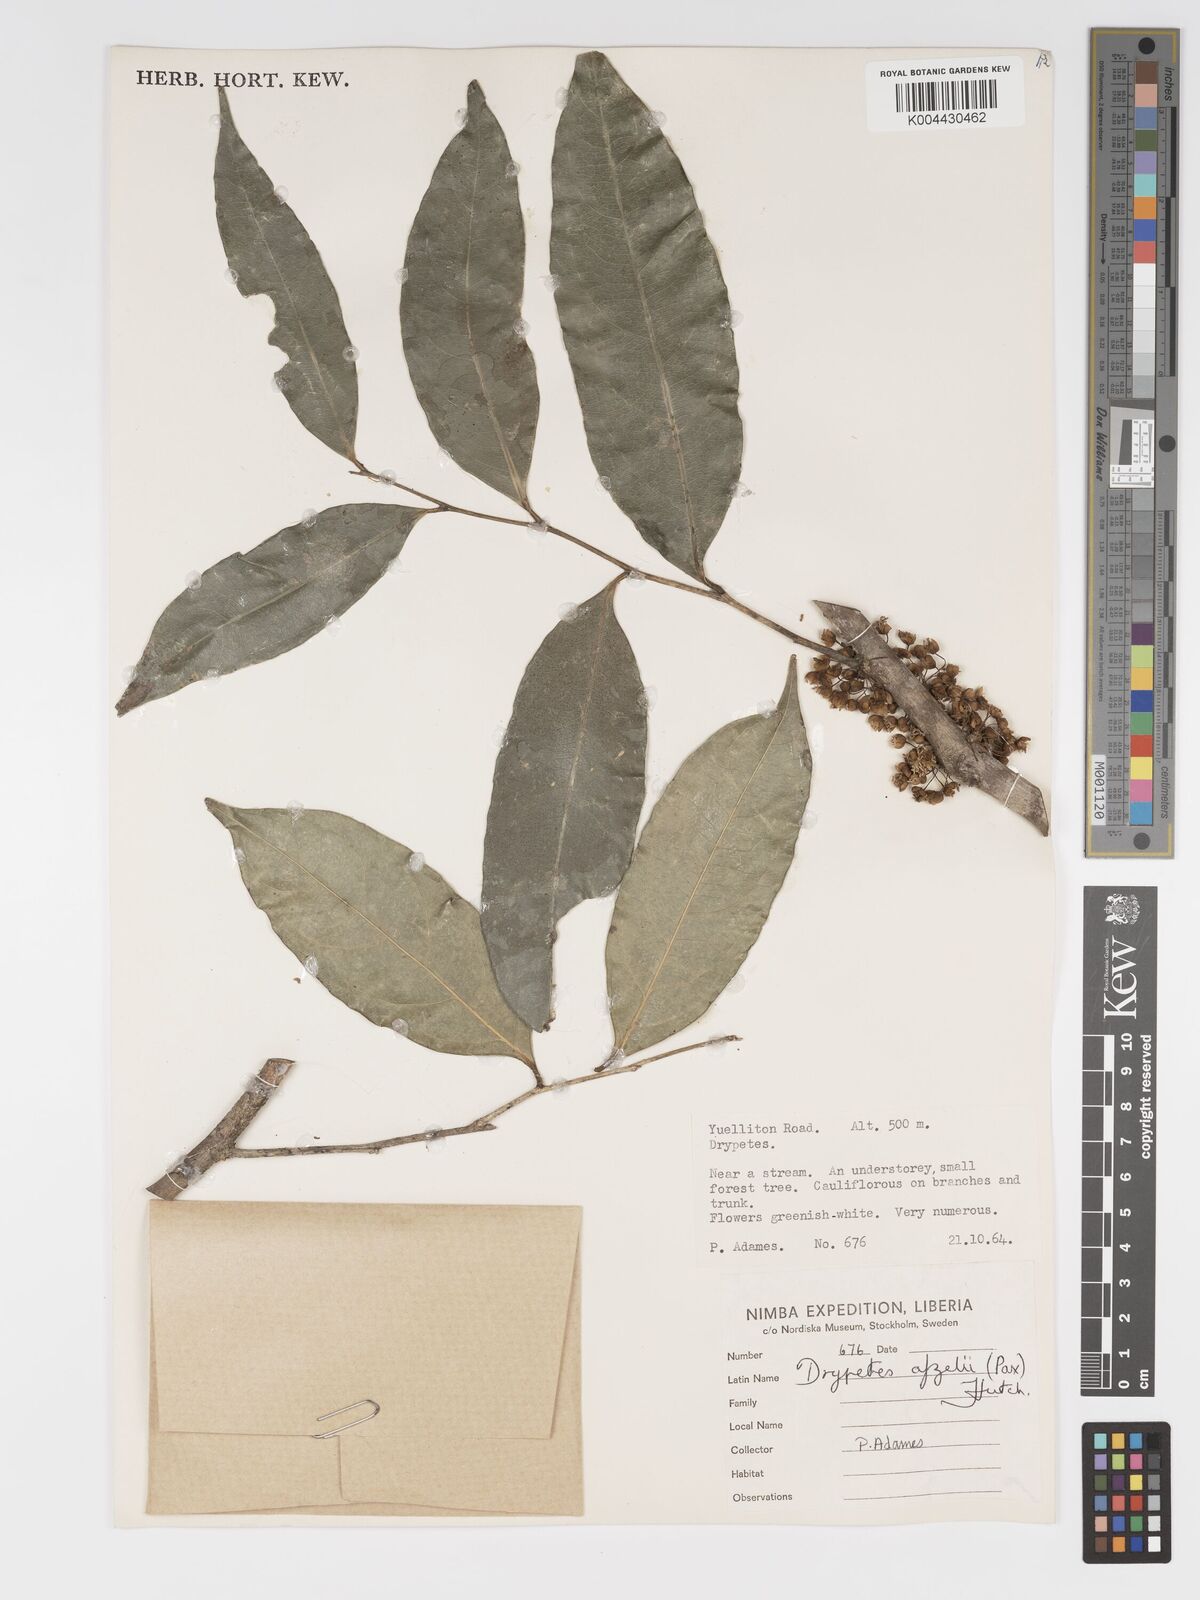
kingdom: Plantae
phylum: Tracheophyta
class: Magnoliopsida
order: Malpighiales
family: Putranjivaceae
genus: Drypetes
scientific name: Drypetes afzelii
